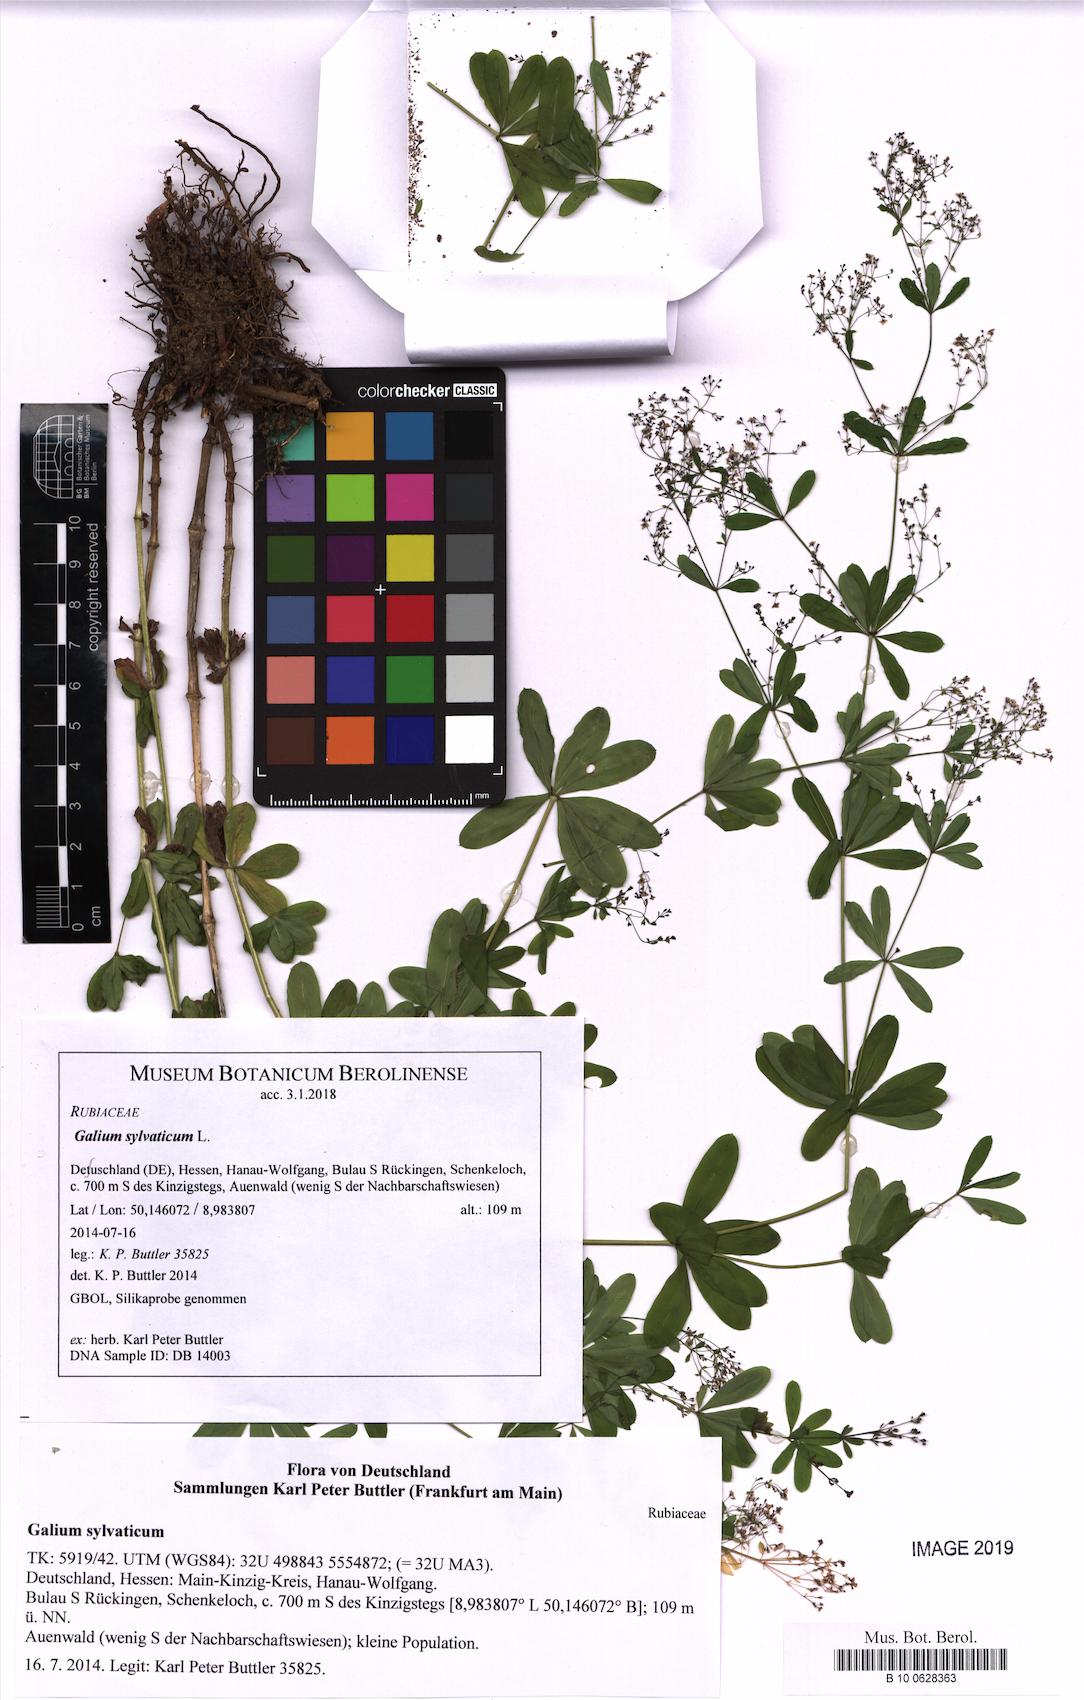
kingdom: Plantae
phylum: Tracheophyta
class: Magnoliopsida
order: Gentianales
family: Rubiaceae
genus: Galium
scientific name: Galium sylvaticum
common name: Wood bedstraw
